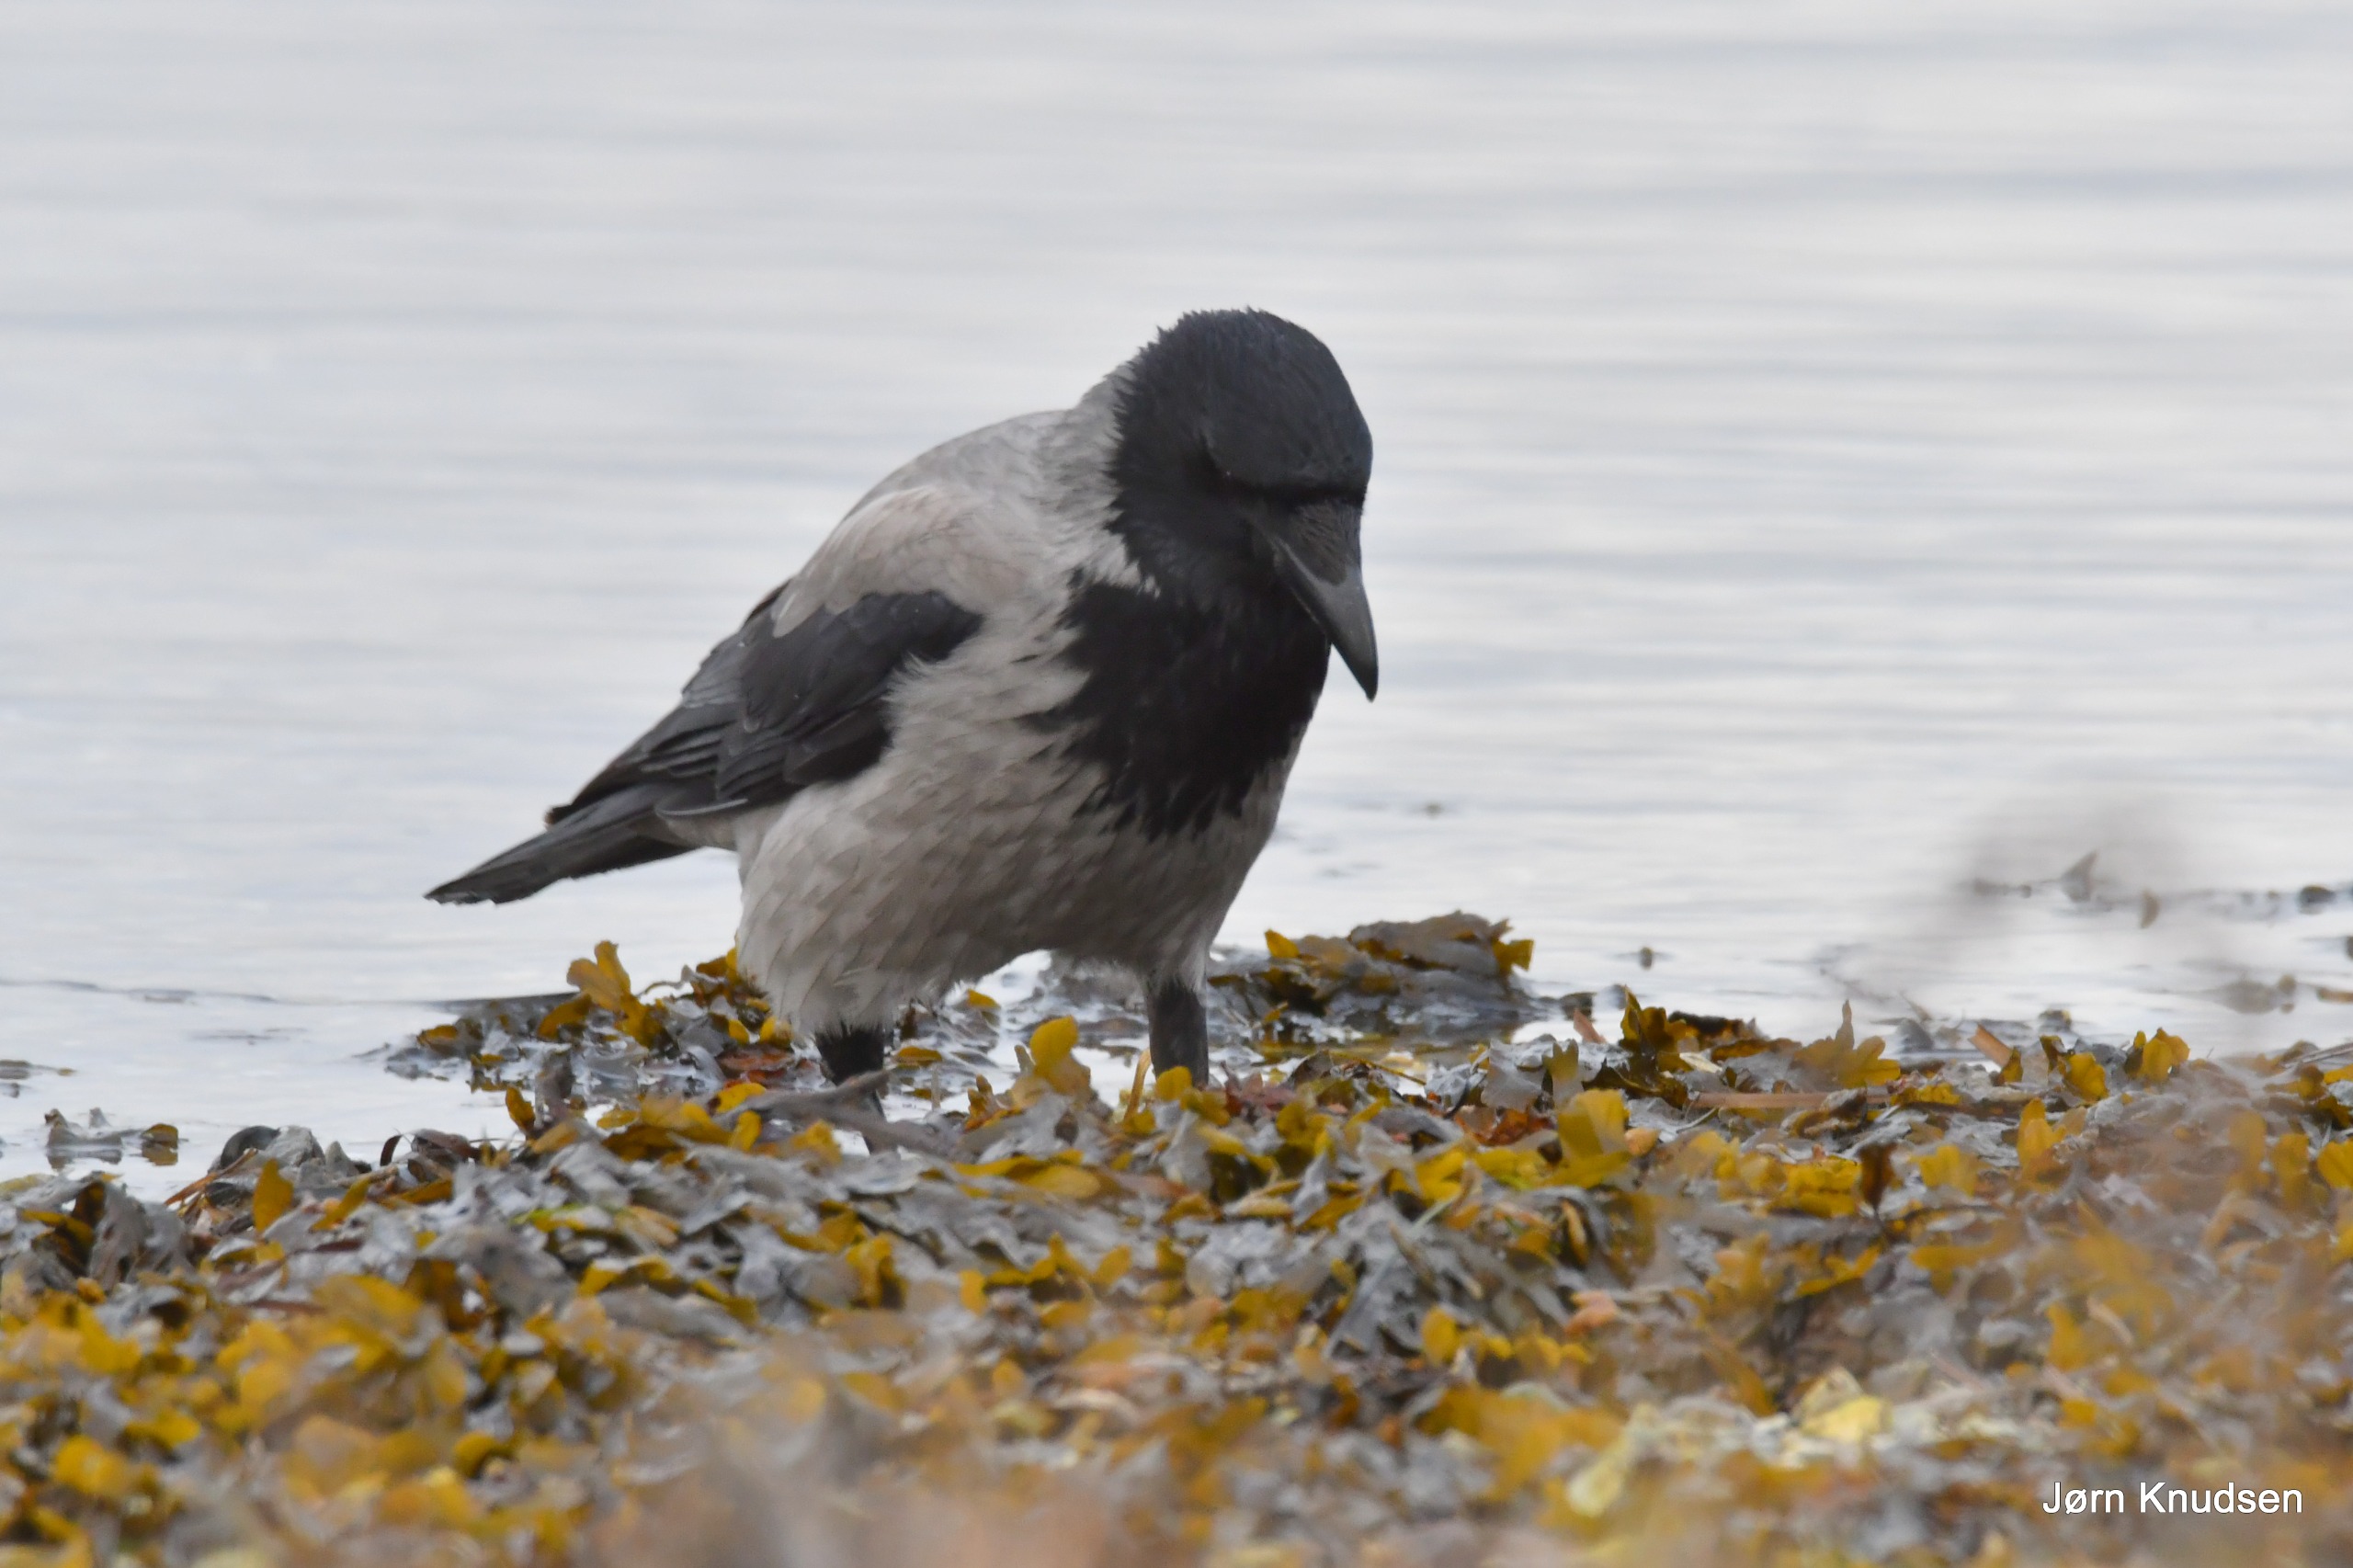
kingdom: Animalia
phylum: Chordata
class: Aves
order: Passeriformes
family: Corvidae
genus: Corvus
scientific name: Corvus cornix
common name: Gråkrage
